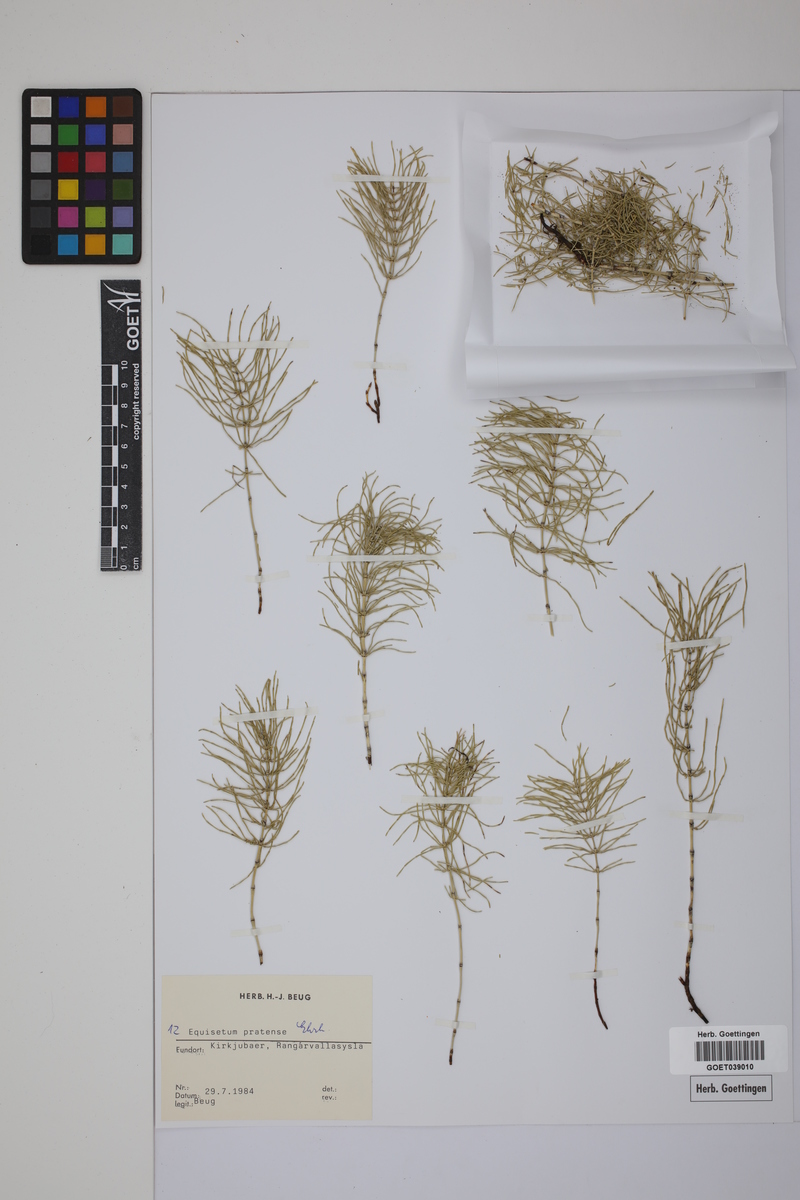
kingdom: Plantae
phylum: Tracheophyta
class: Polypodiopsida
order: Equisetales
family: Equisetaceae
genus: Equisetum
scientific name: Equisetum pratense
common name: Meadow horsetail
